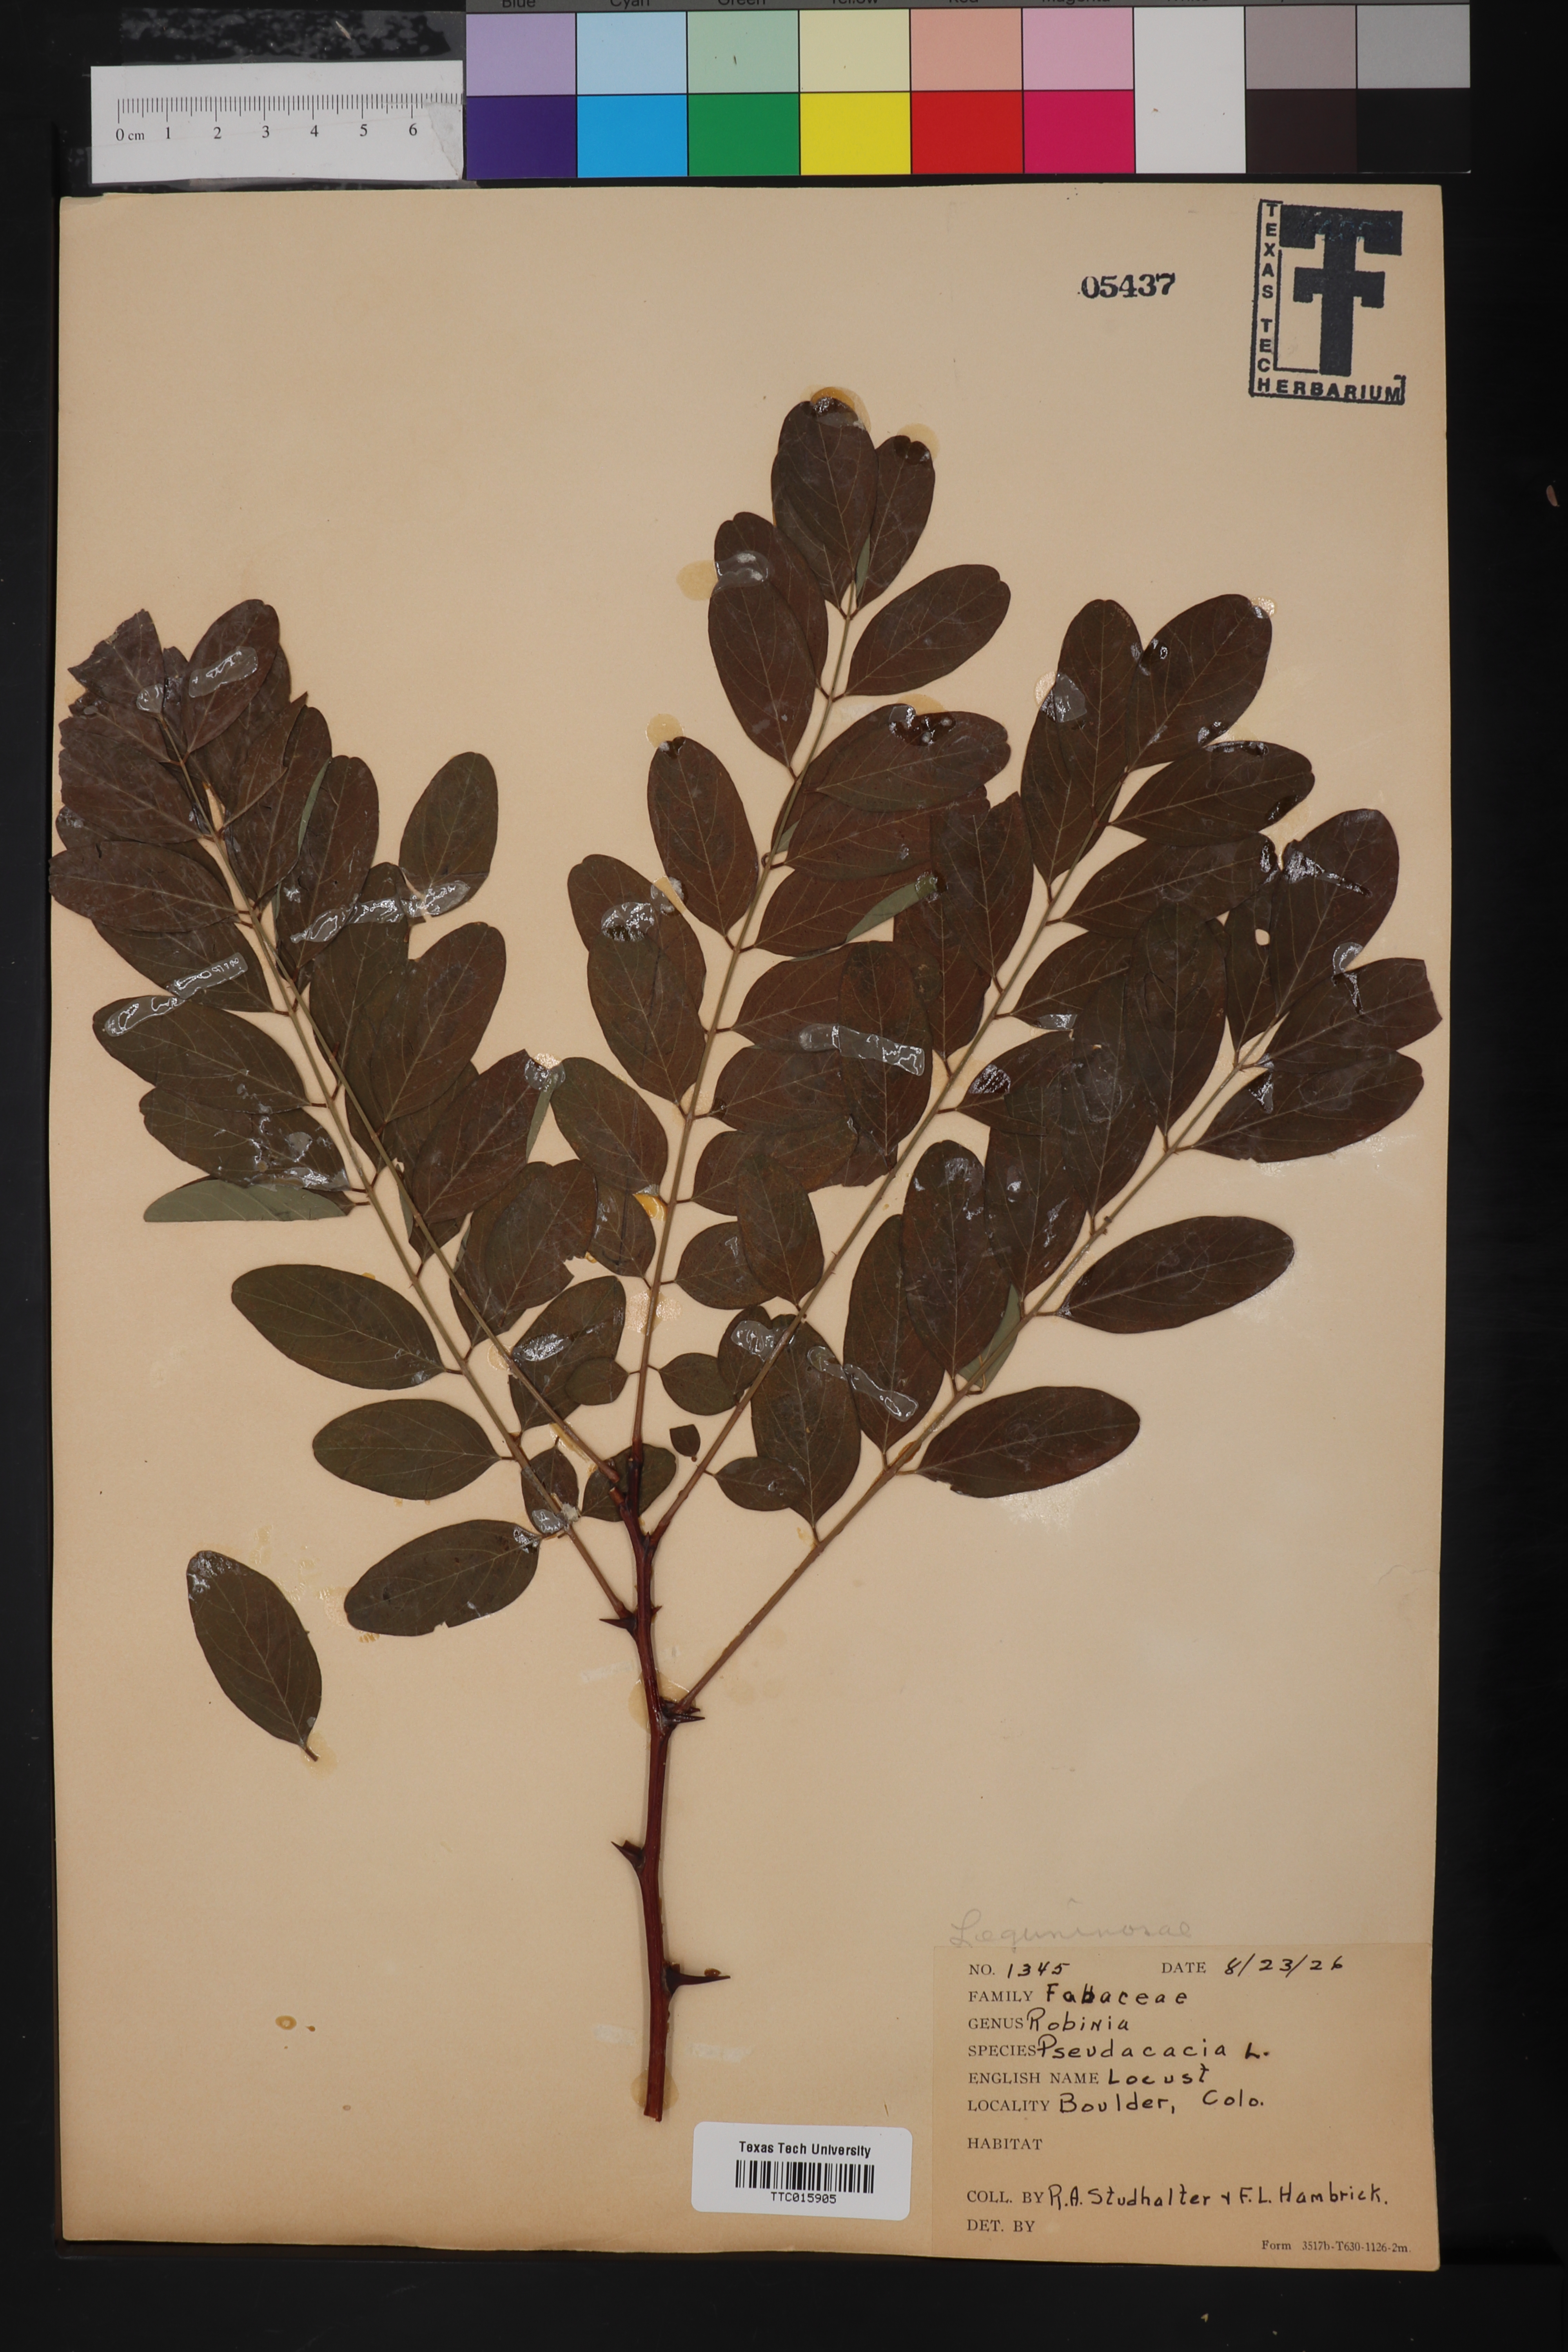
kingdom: Plantae
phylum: Tracheophyta
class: Magnoliopsida
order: Fabales
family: Fabaceae
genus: Robinia
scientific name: Robinia pseudoacacia
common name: Black locust
